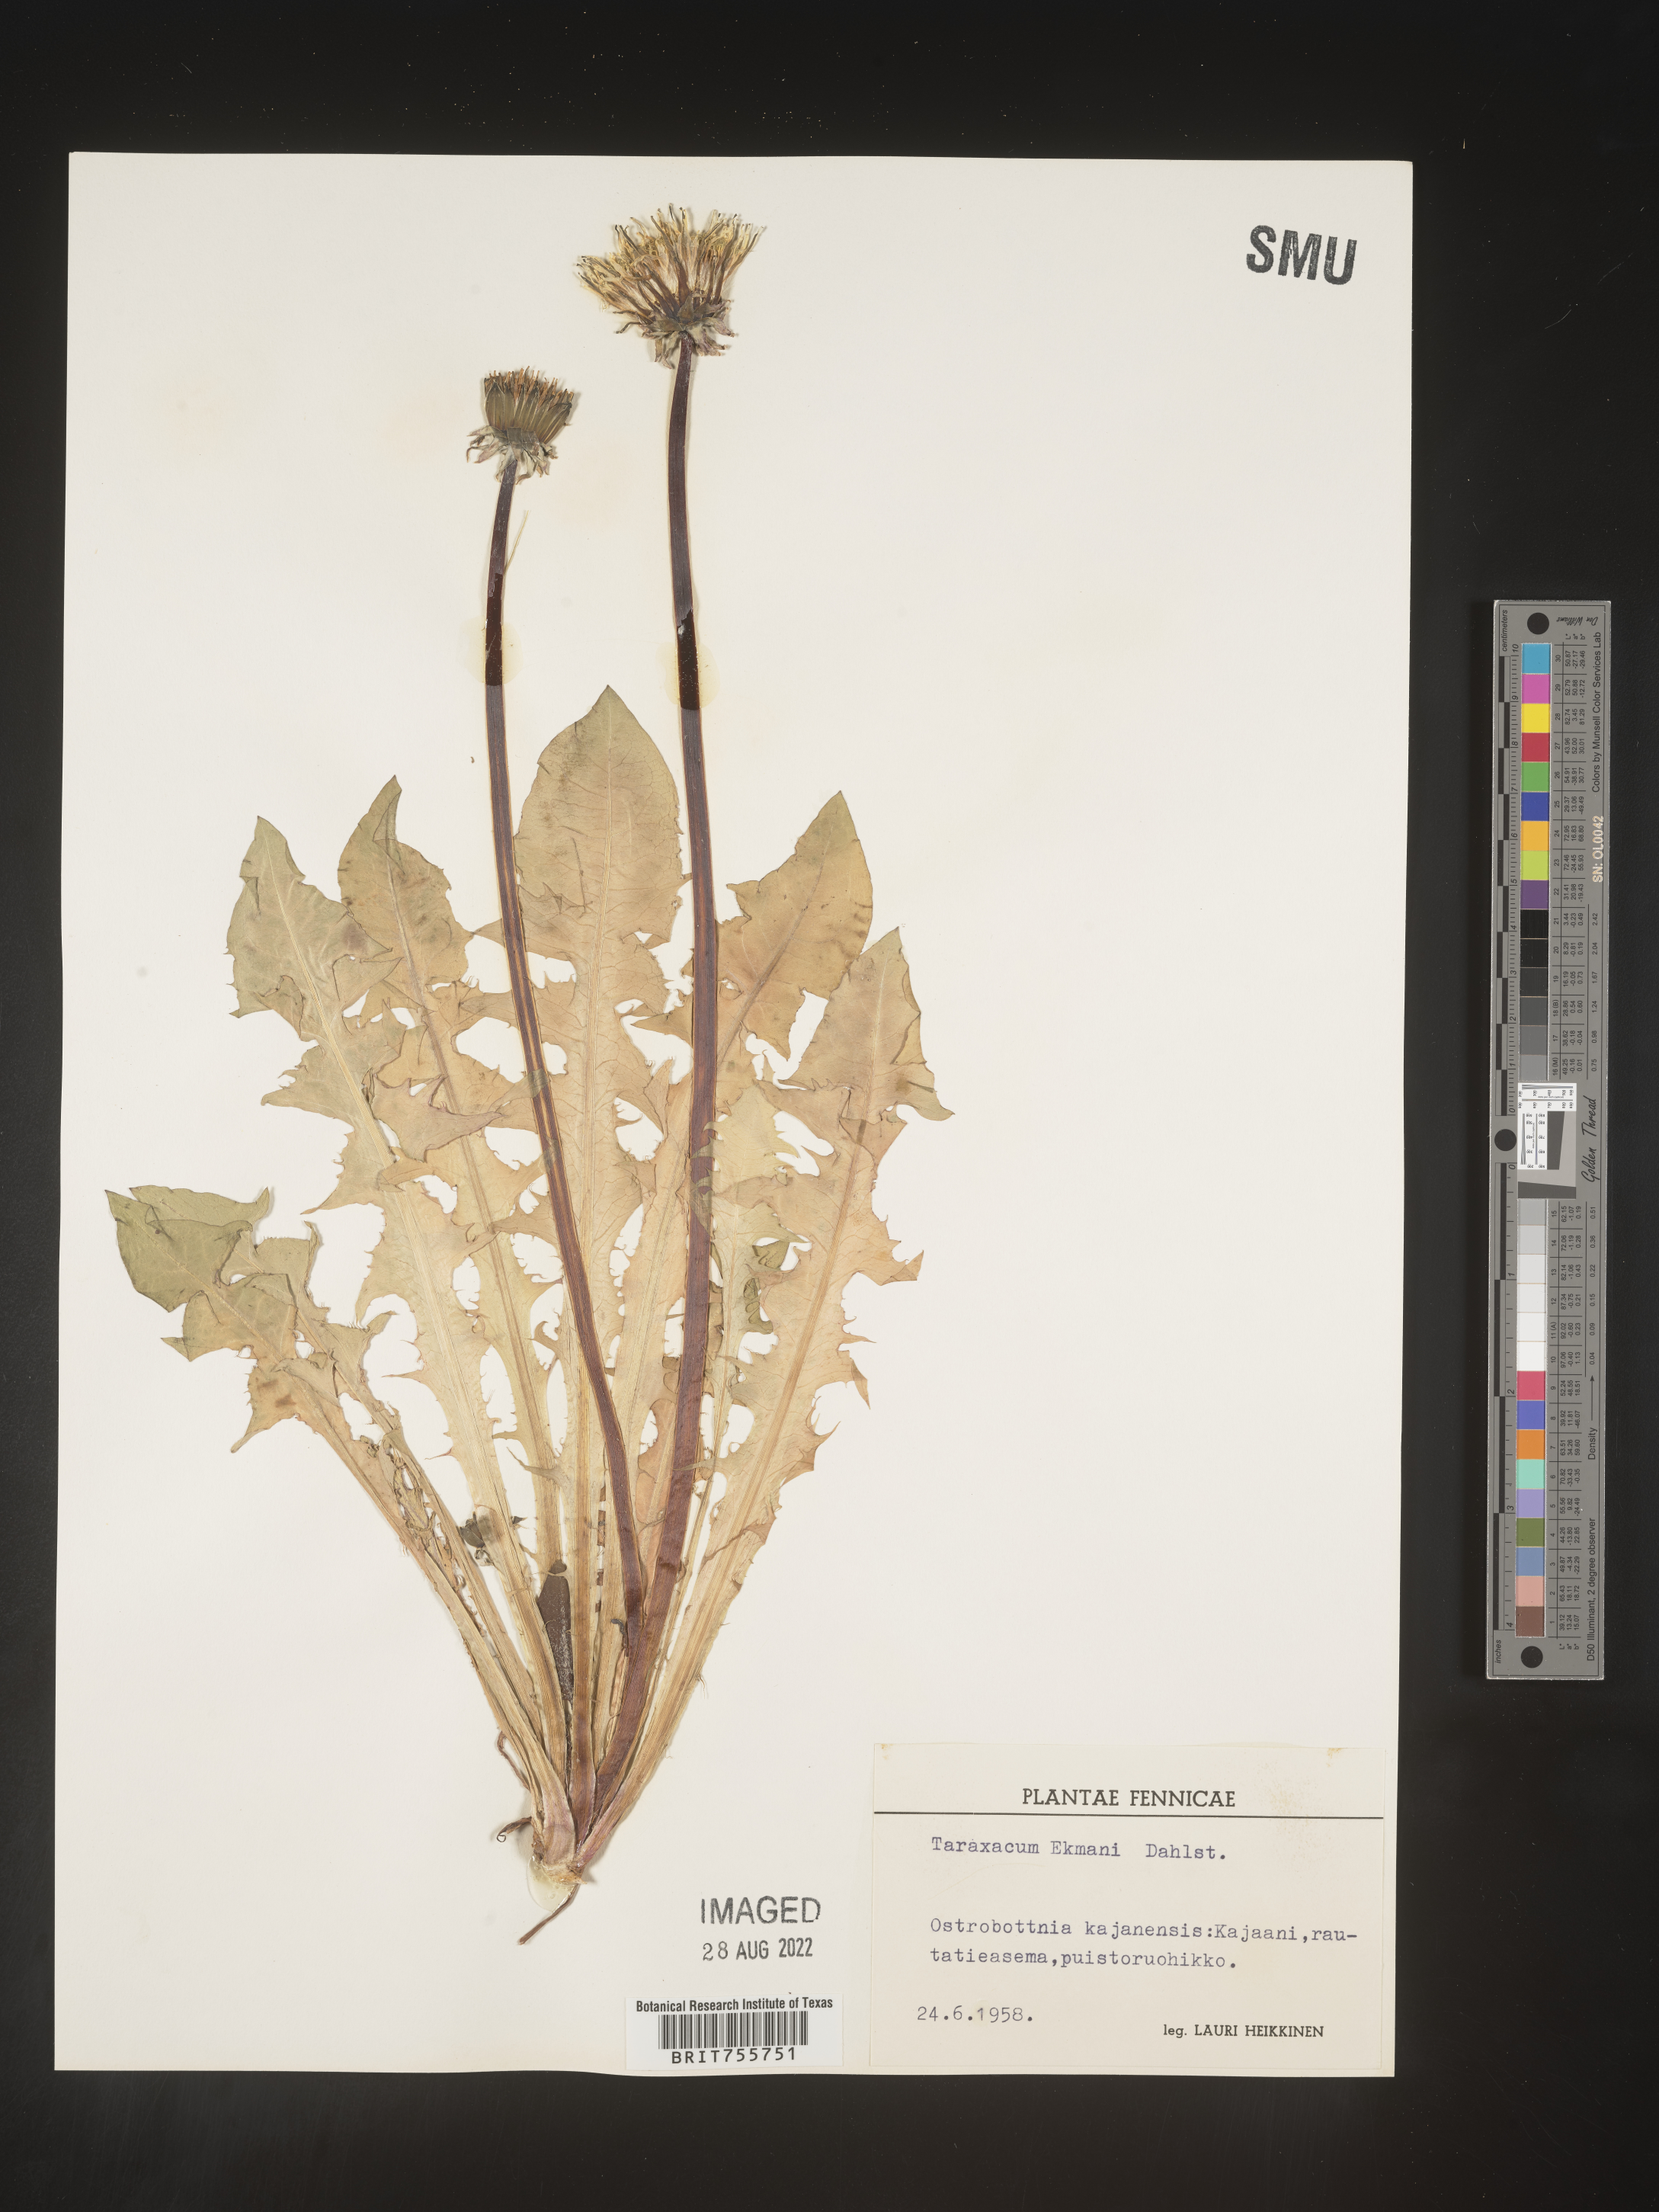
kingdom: Plantae
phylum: Tracheophyta
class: Magnoliopsida
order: Asterales
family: Asteraceae
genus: Taraxacum
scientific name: Taraxacum
